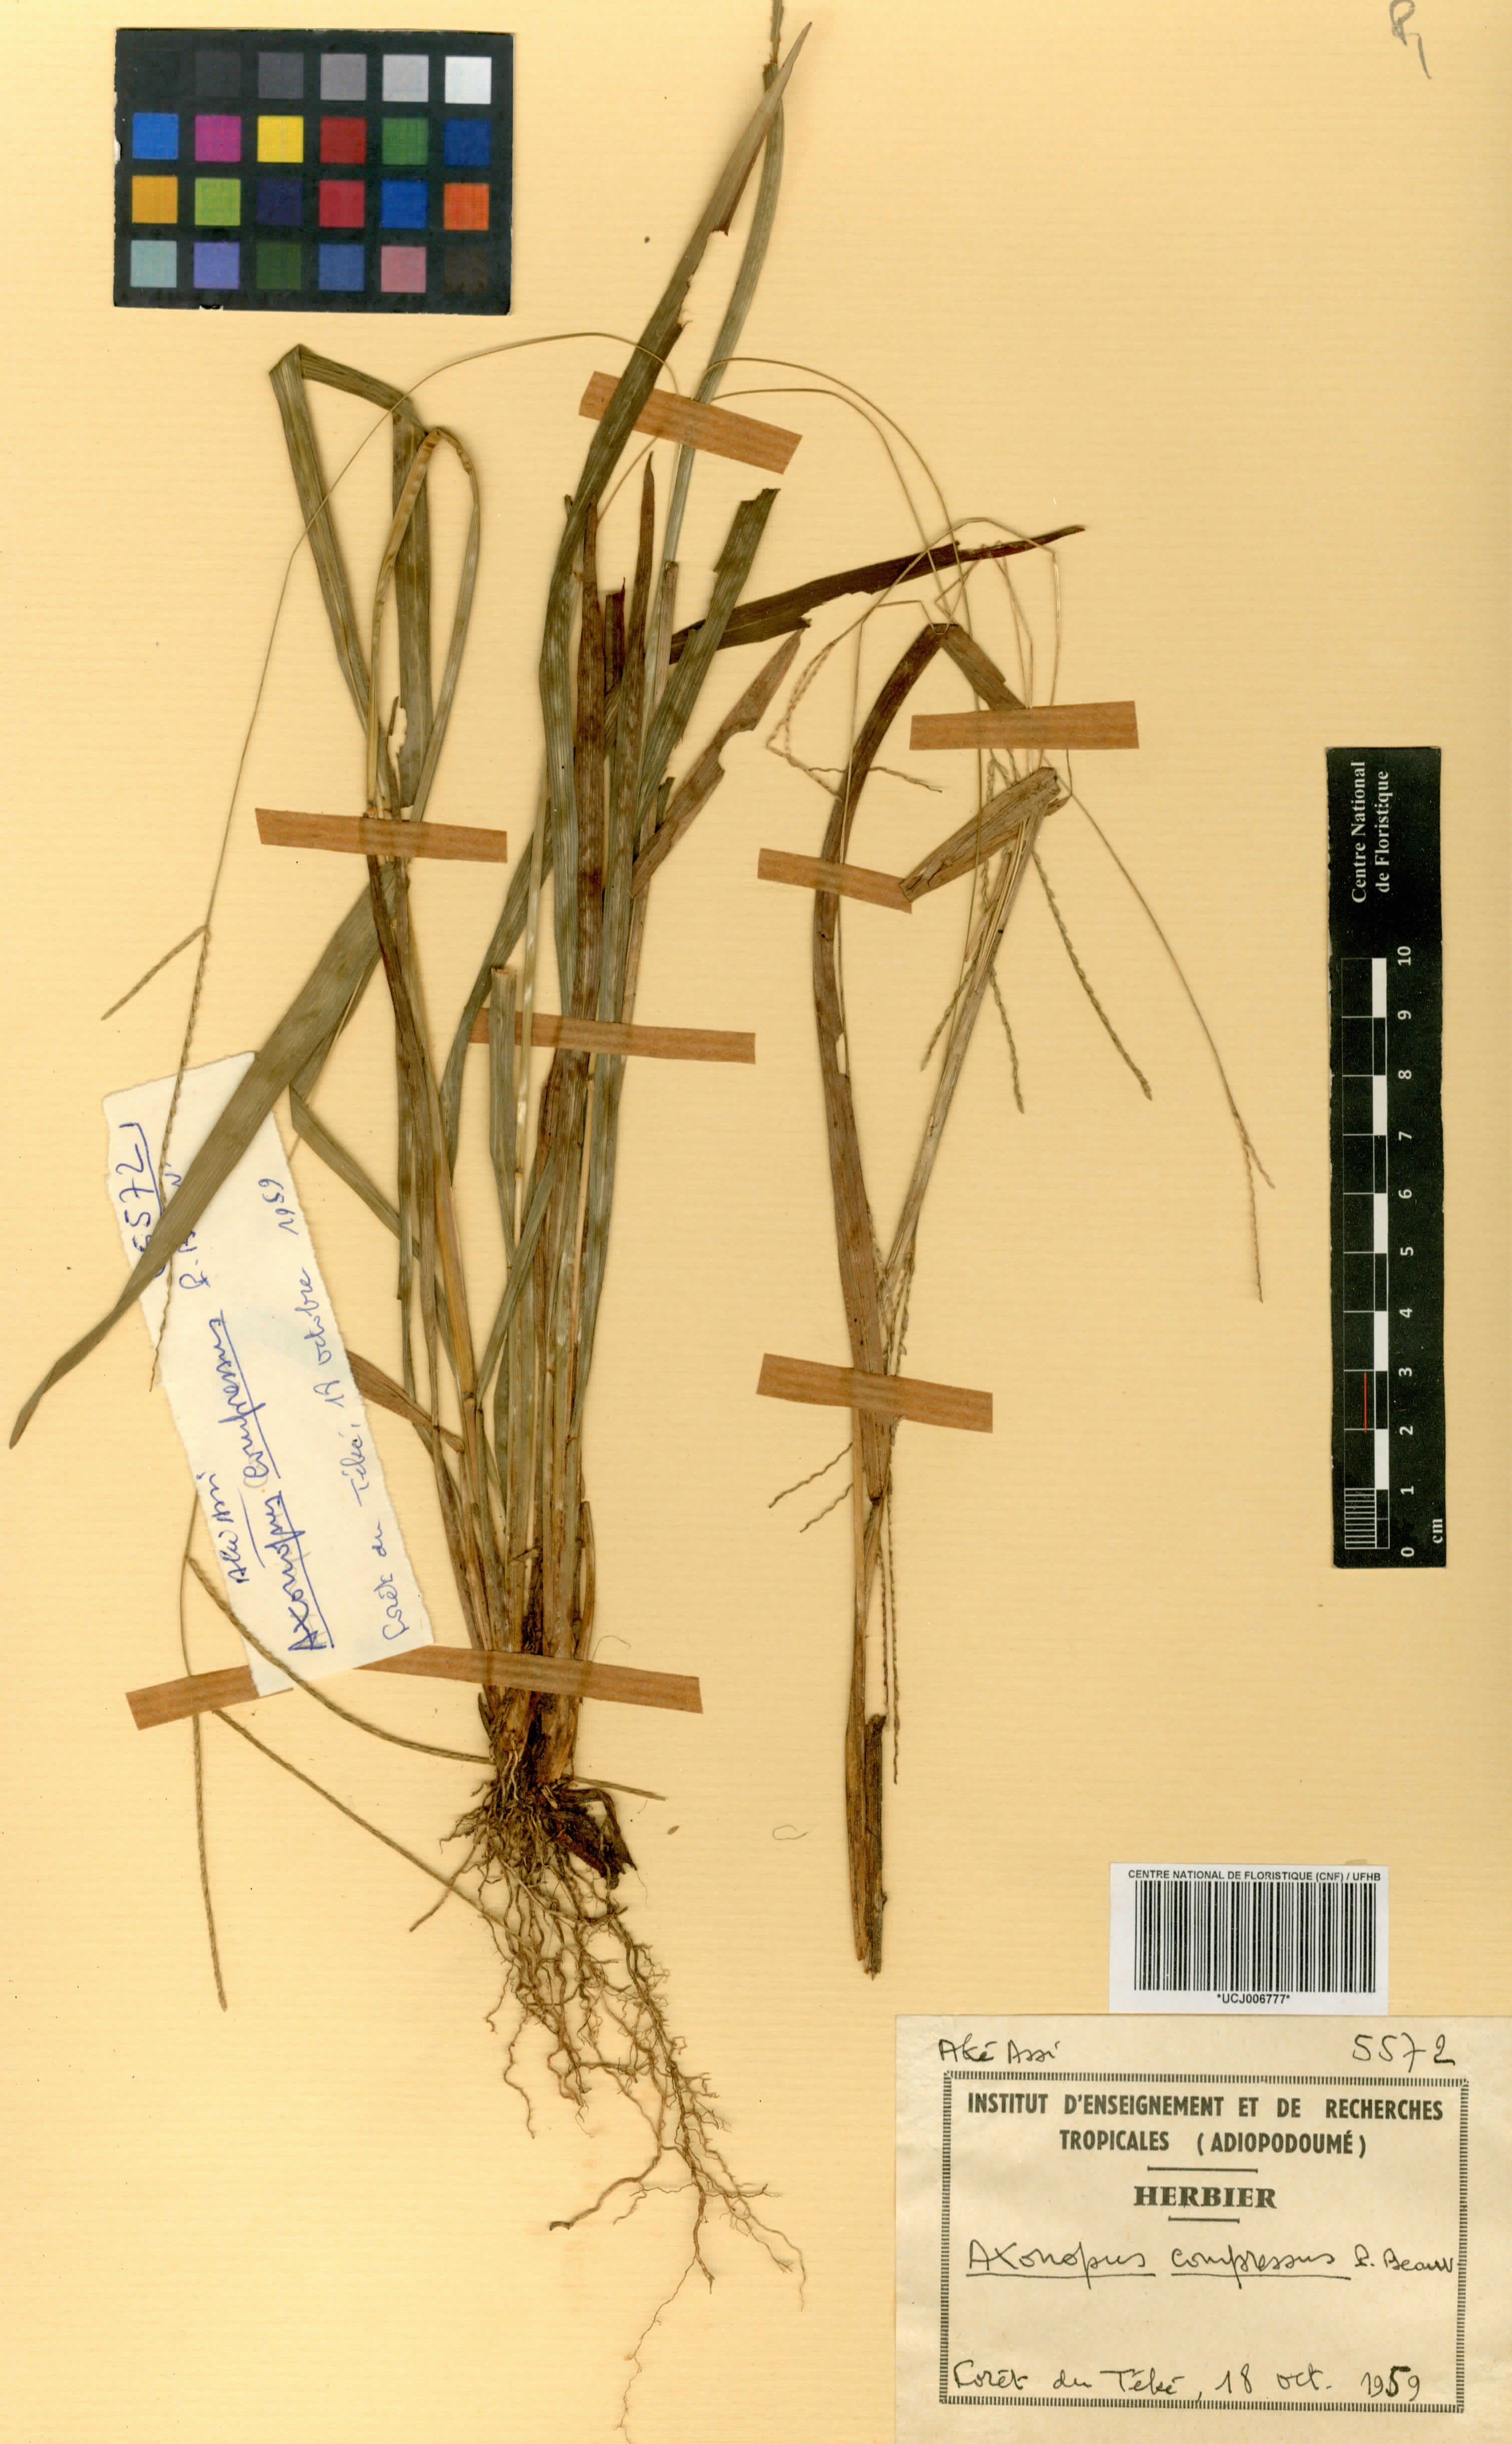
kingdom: Plantae
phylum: Tracheophyta
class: Liliopsida
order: Poales
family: Poaceae
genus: Axonopus
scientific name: Axonopus compressus
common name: American carpet grass
